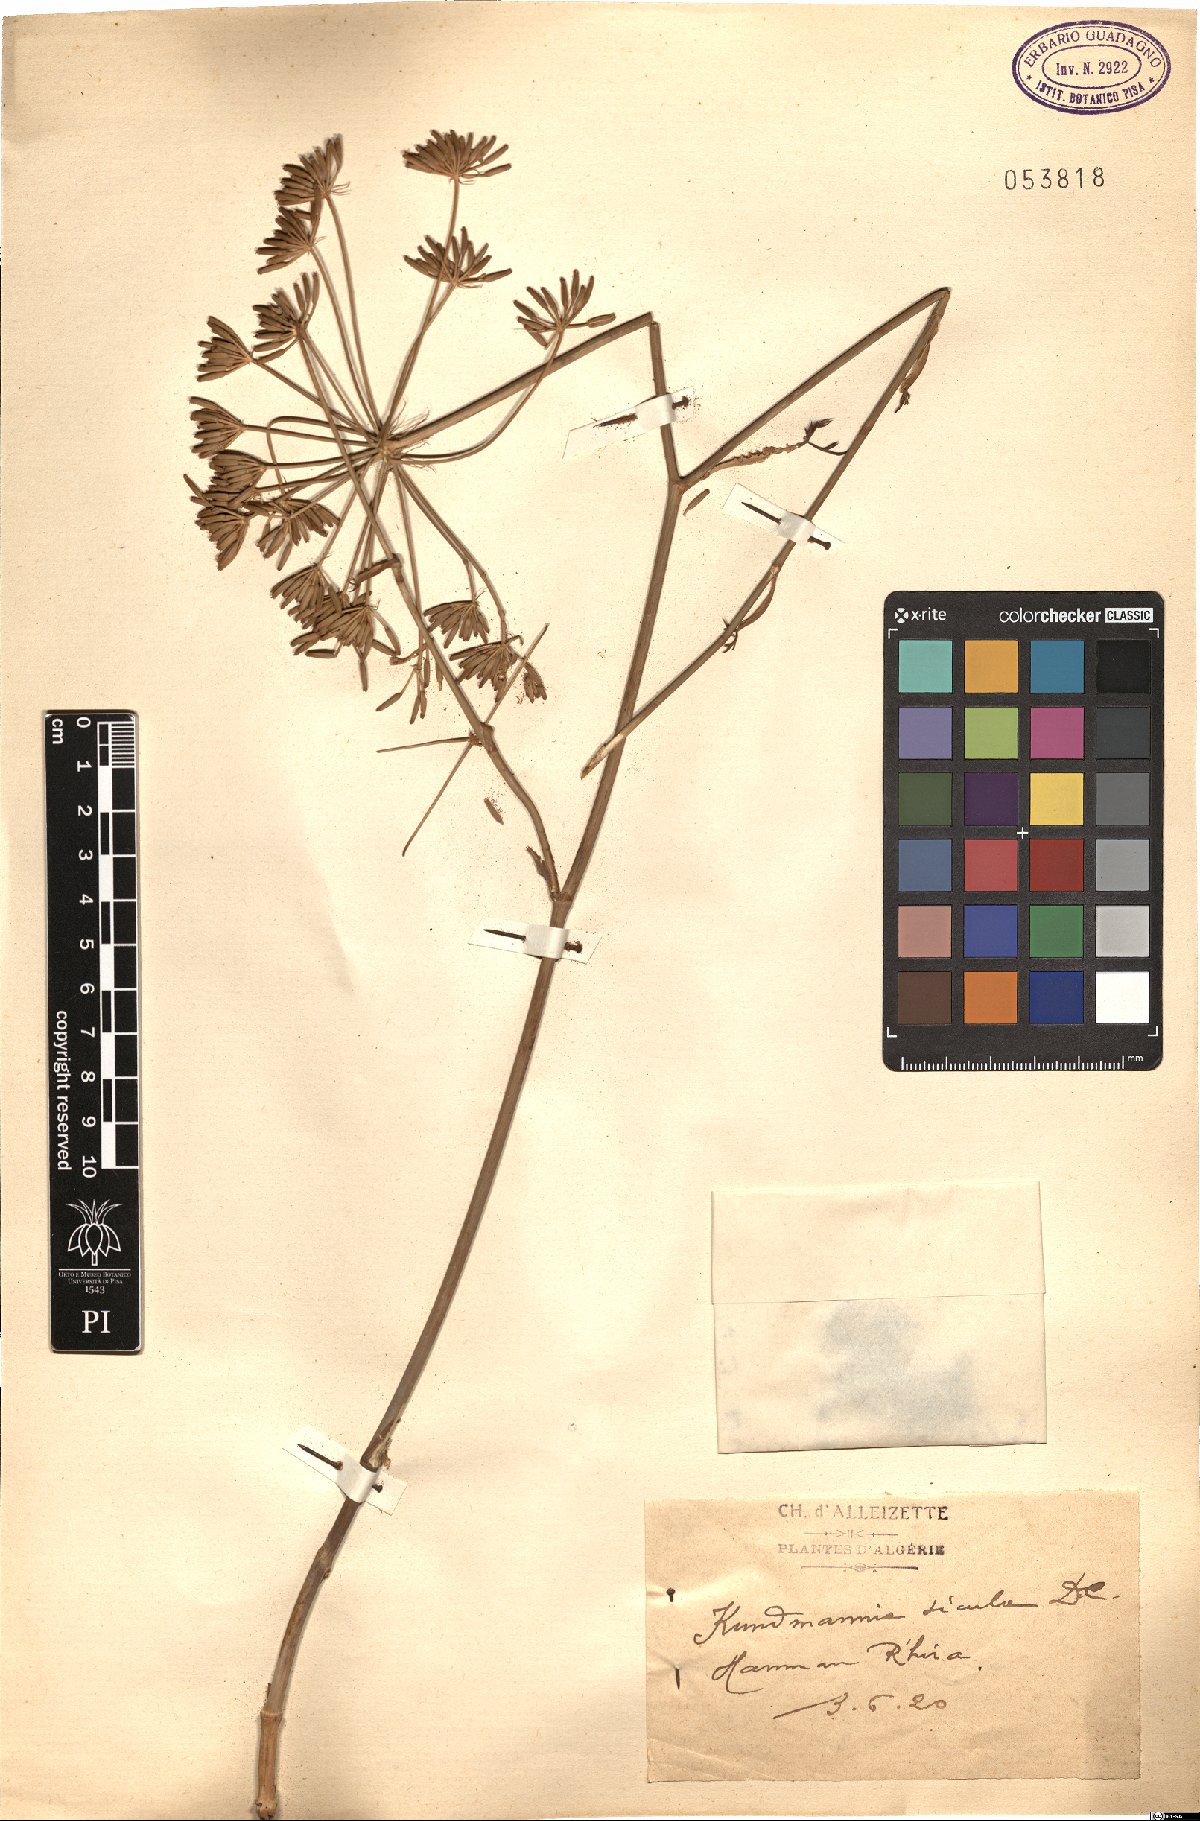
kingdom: Plantae
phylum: Tracheophyta
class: Magnoliopsida
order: Apiales
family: Apiaceae
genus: Kundmannia
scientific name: Kundmannia sicula
